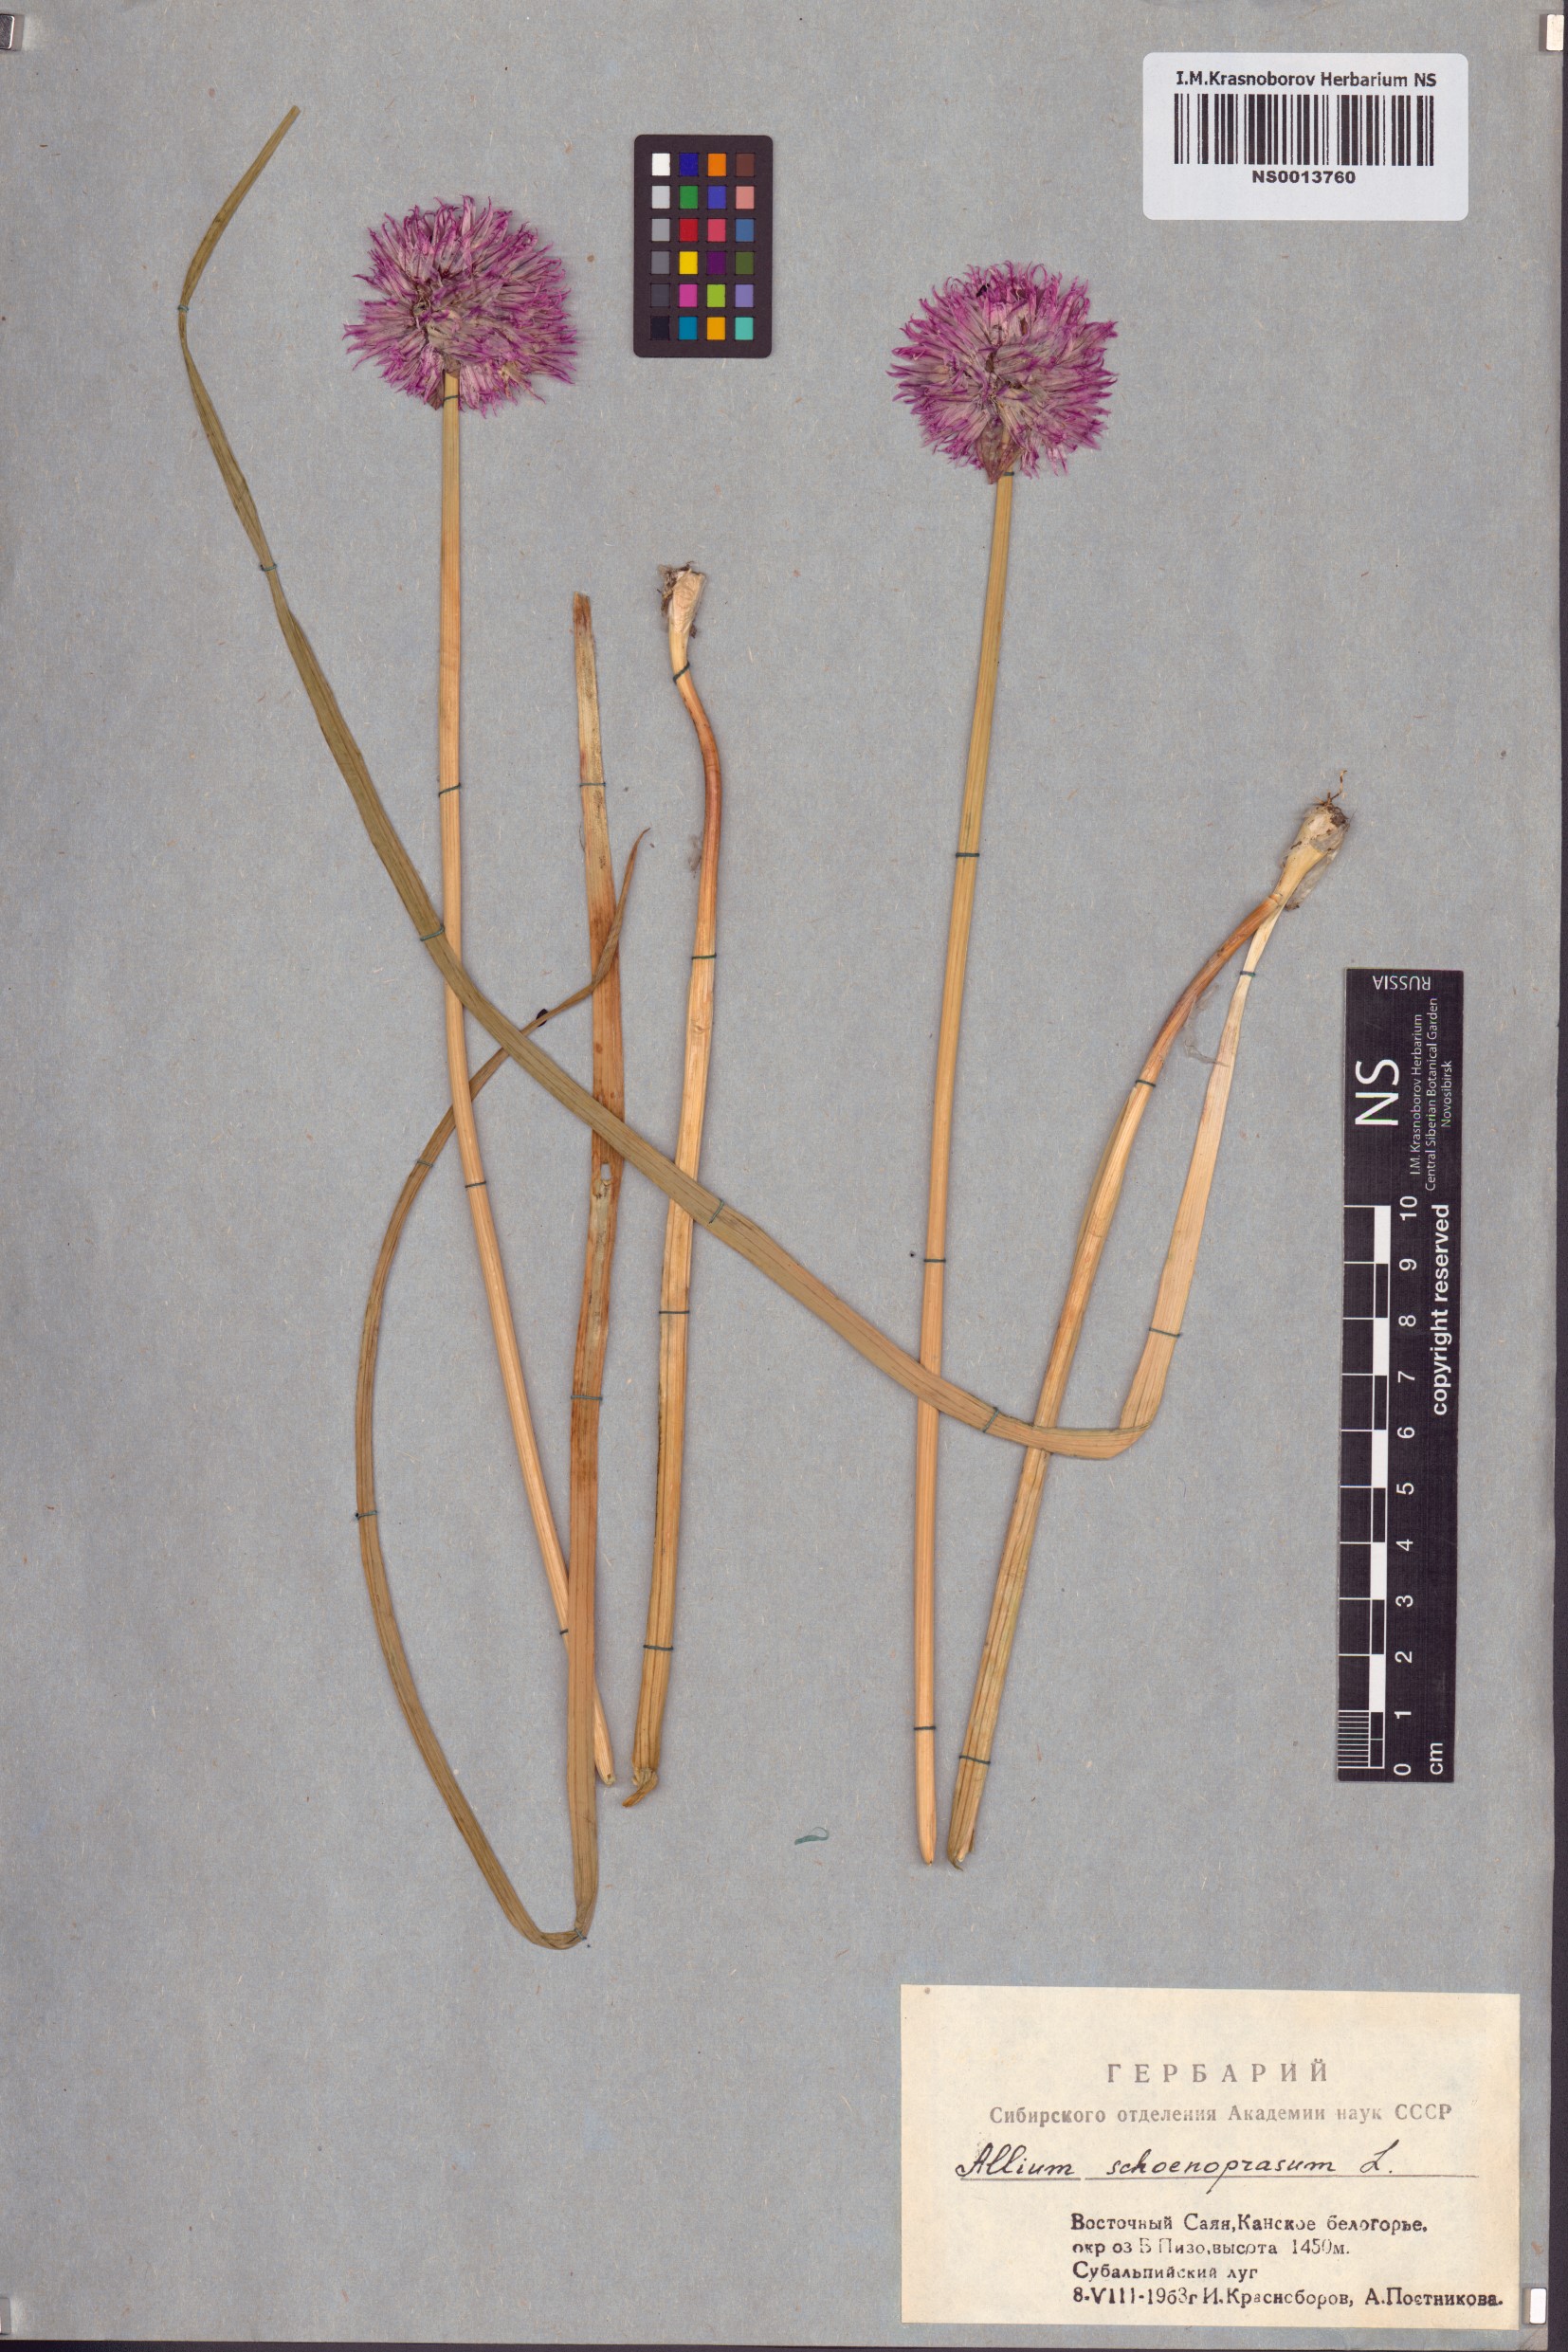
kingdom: Plantae
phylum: Tracheophyta
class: Liliopsida
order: Asparagales
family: Amaryllidaceae
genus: Allium
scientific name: Allium schoenoprasum
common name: Chives
